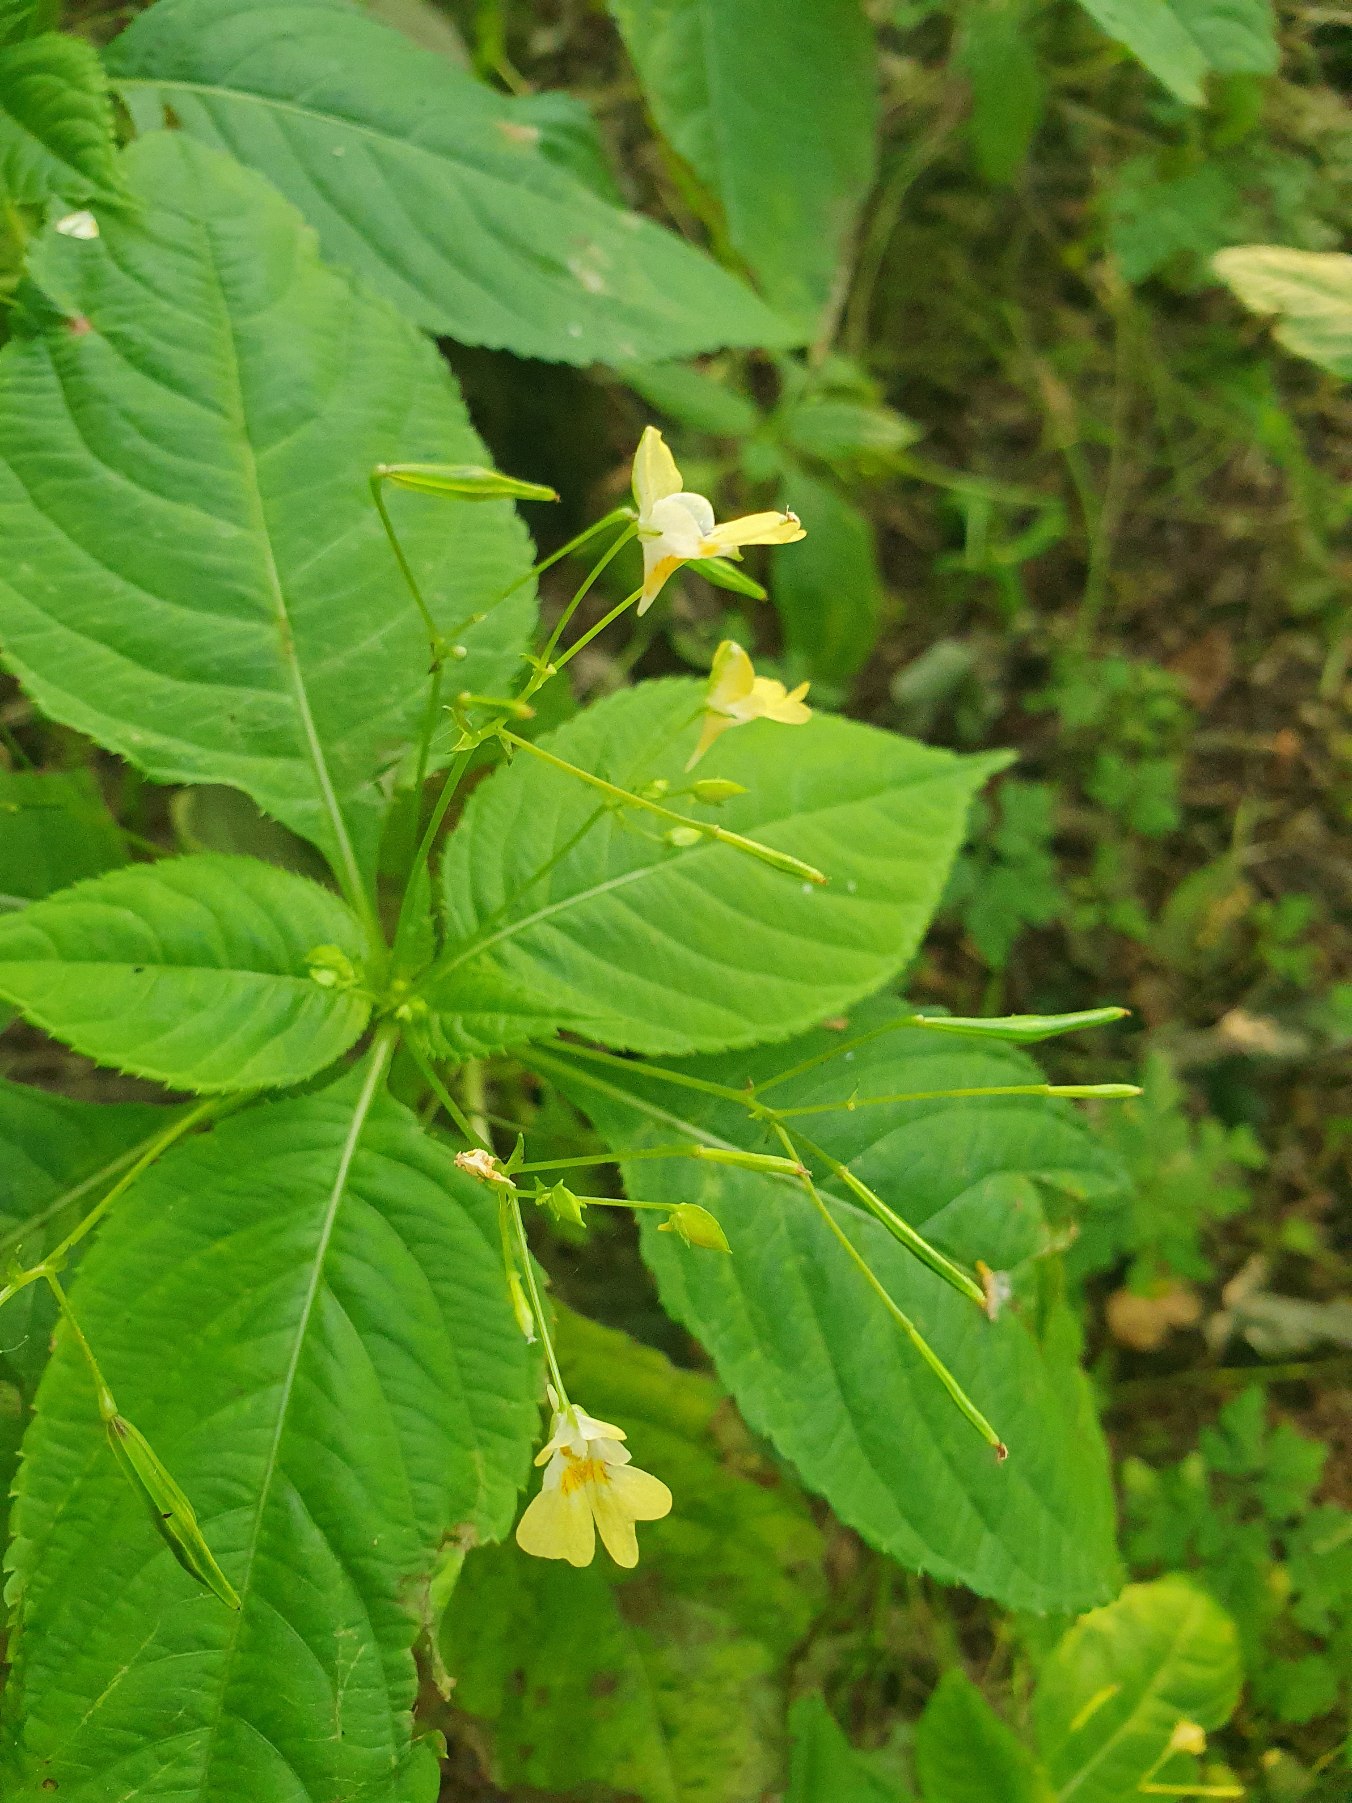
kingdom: Plantae
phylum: Tracheophyta
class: Magnoliopsida
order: Ericales
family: Balsaminaceae
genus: Impatiens
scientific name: Impatiens parviflora
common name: Småblomstret balsamin
